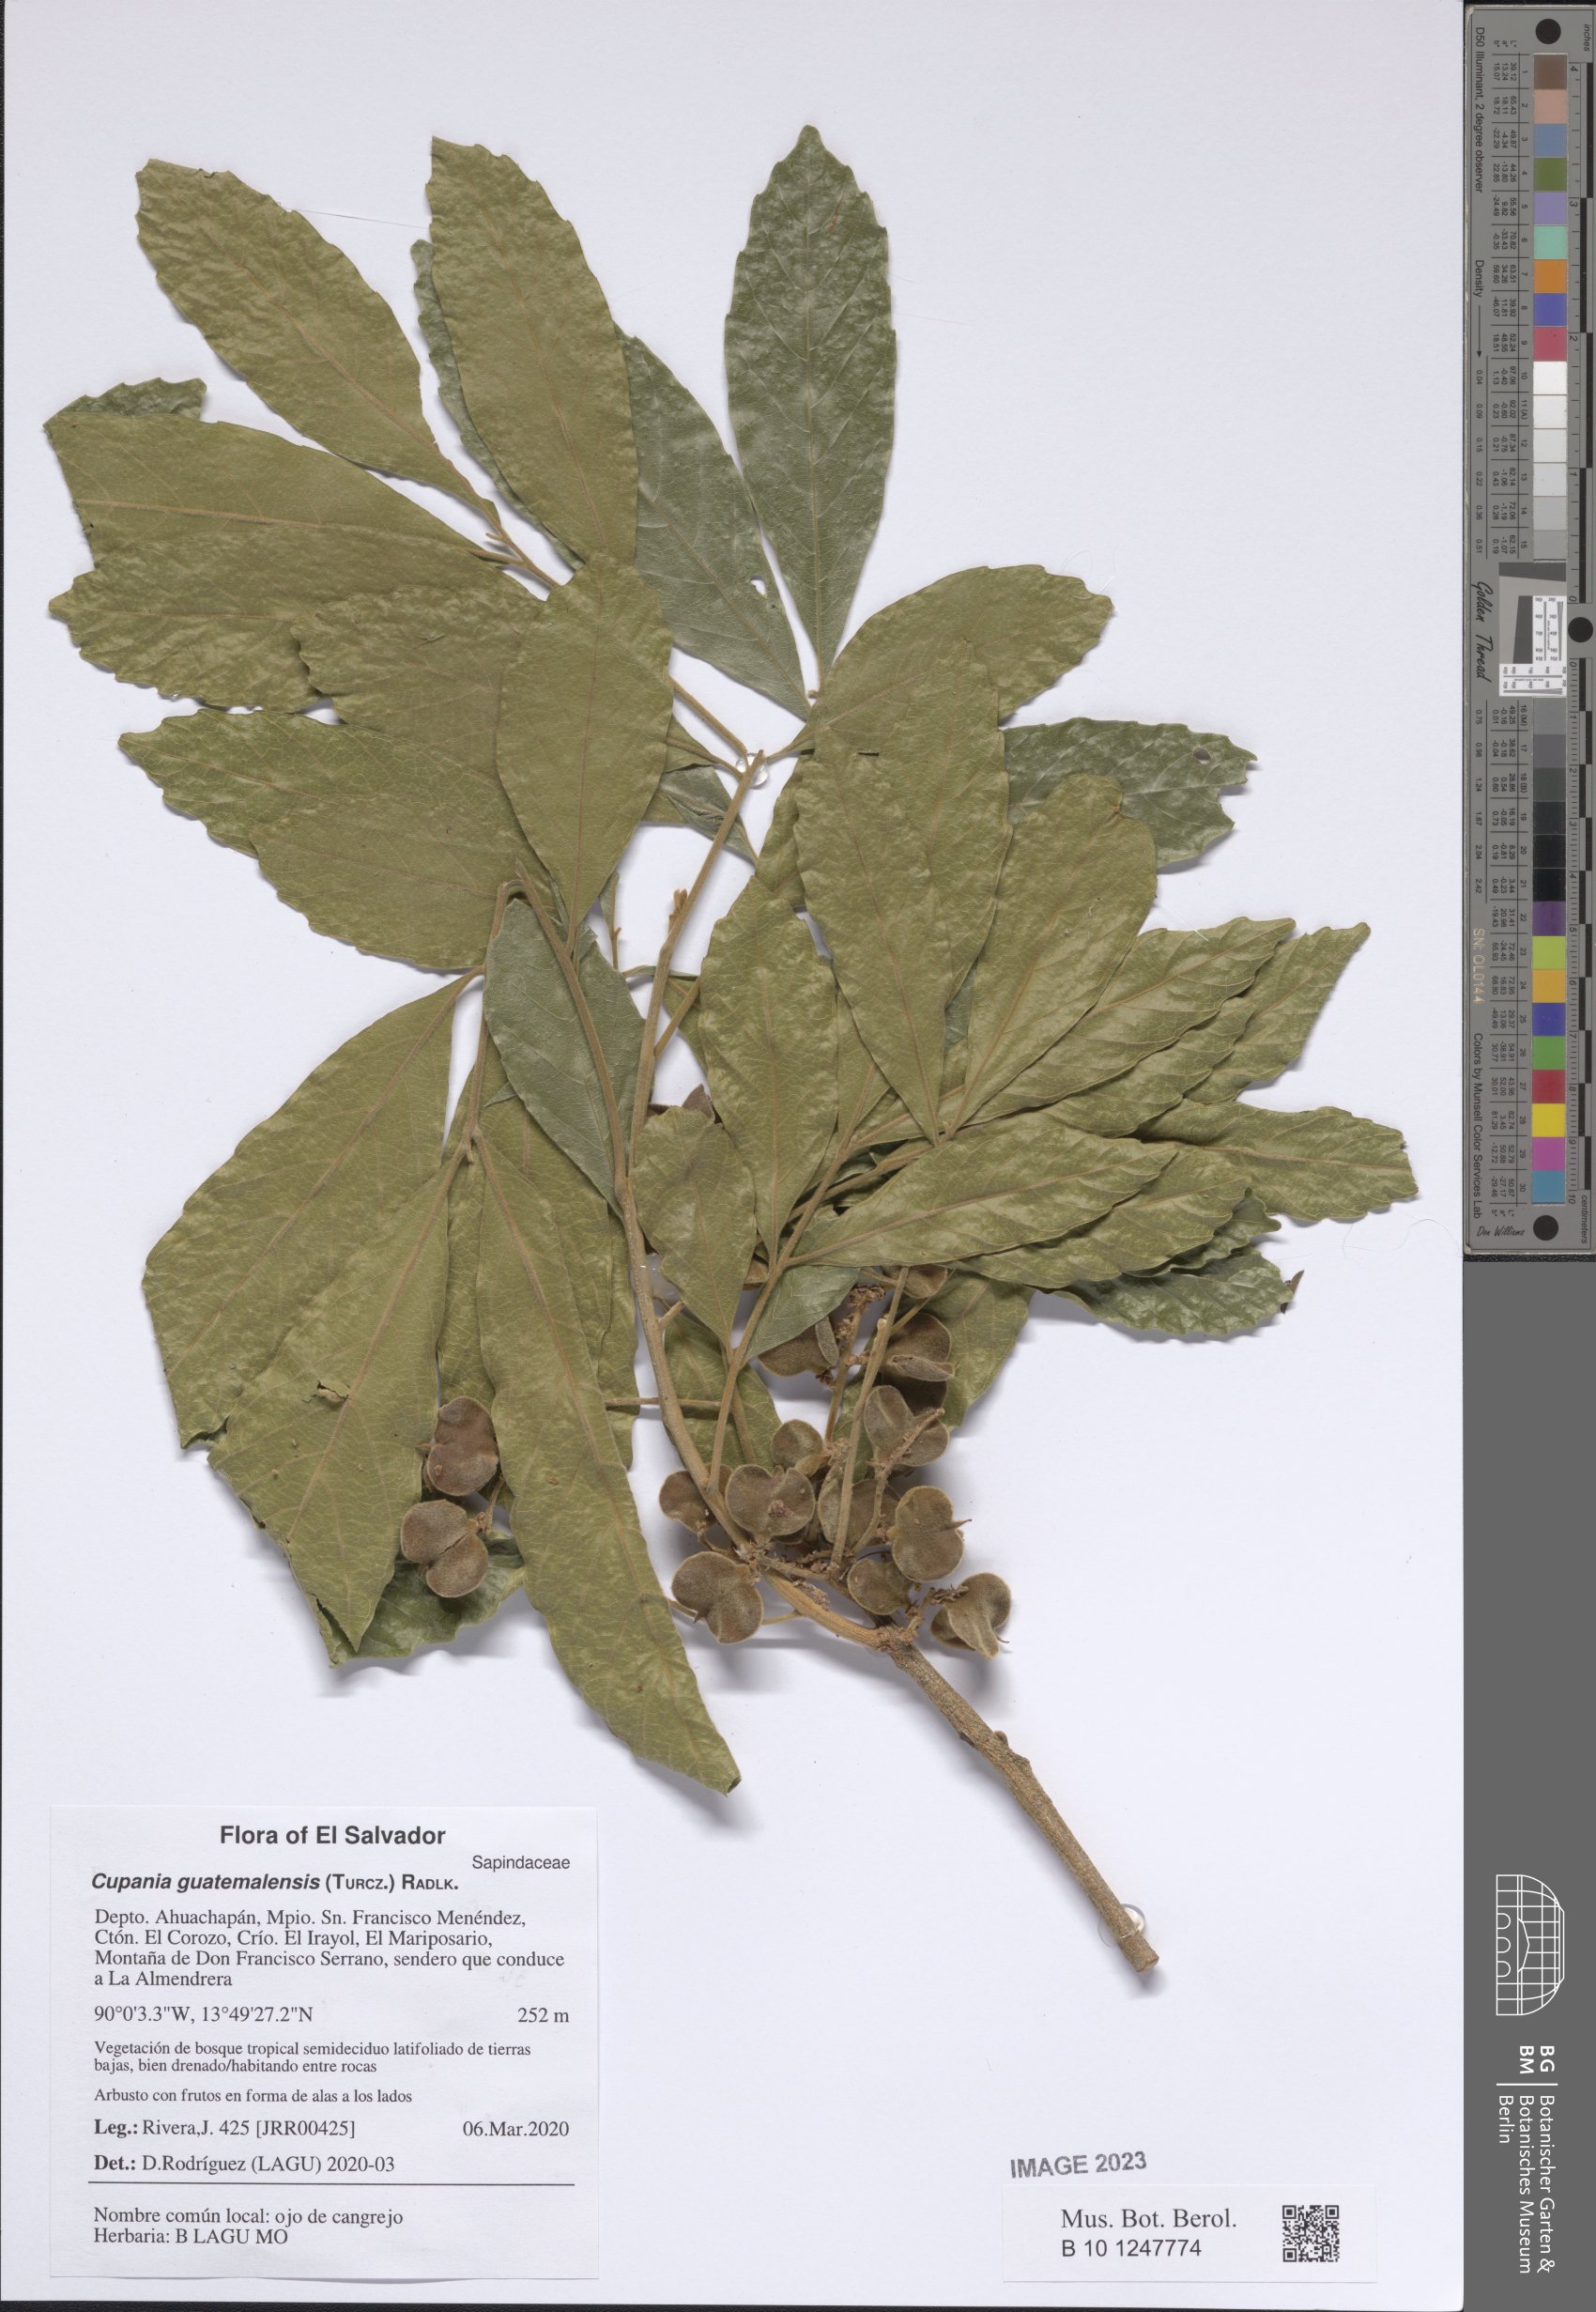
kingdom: Plantae
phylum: Tracheophyta
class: Magnoliopsida
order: Sapindales
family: Sapindaceae
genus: Cupania
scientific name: Cupania guatemalensis
